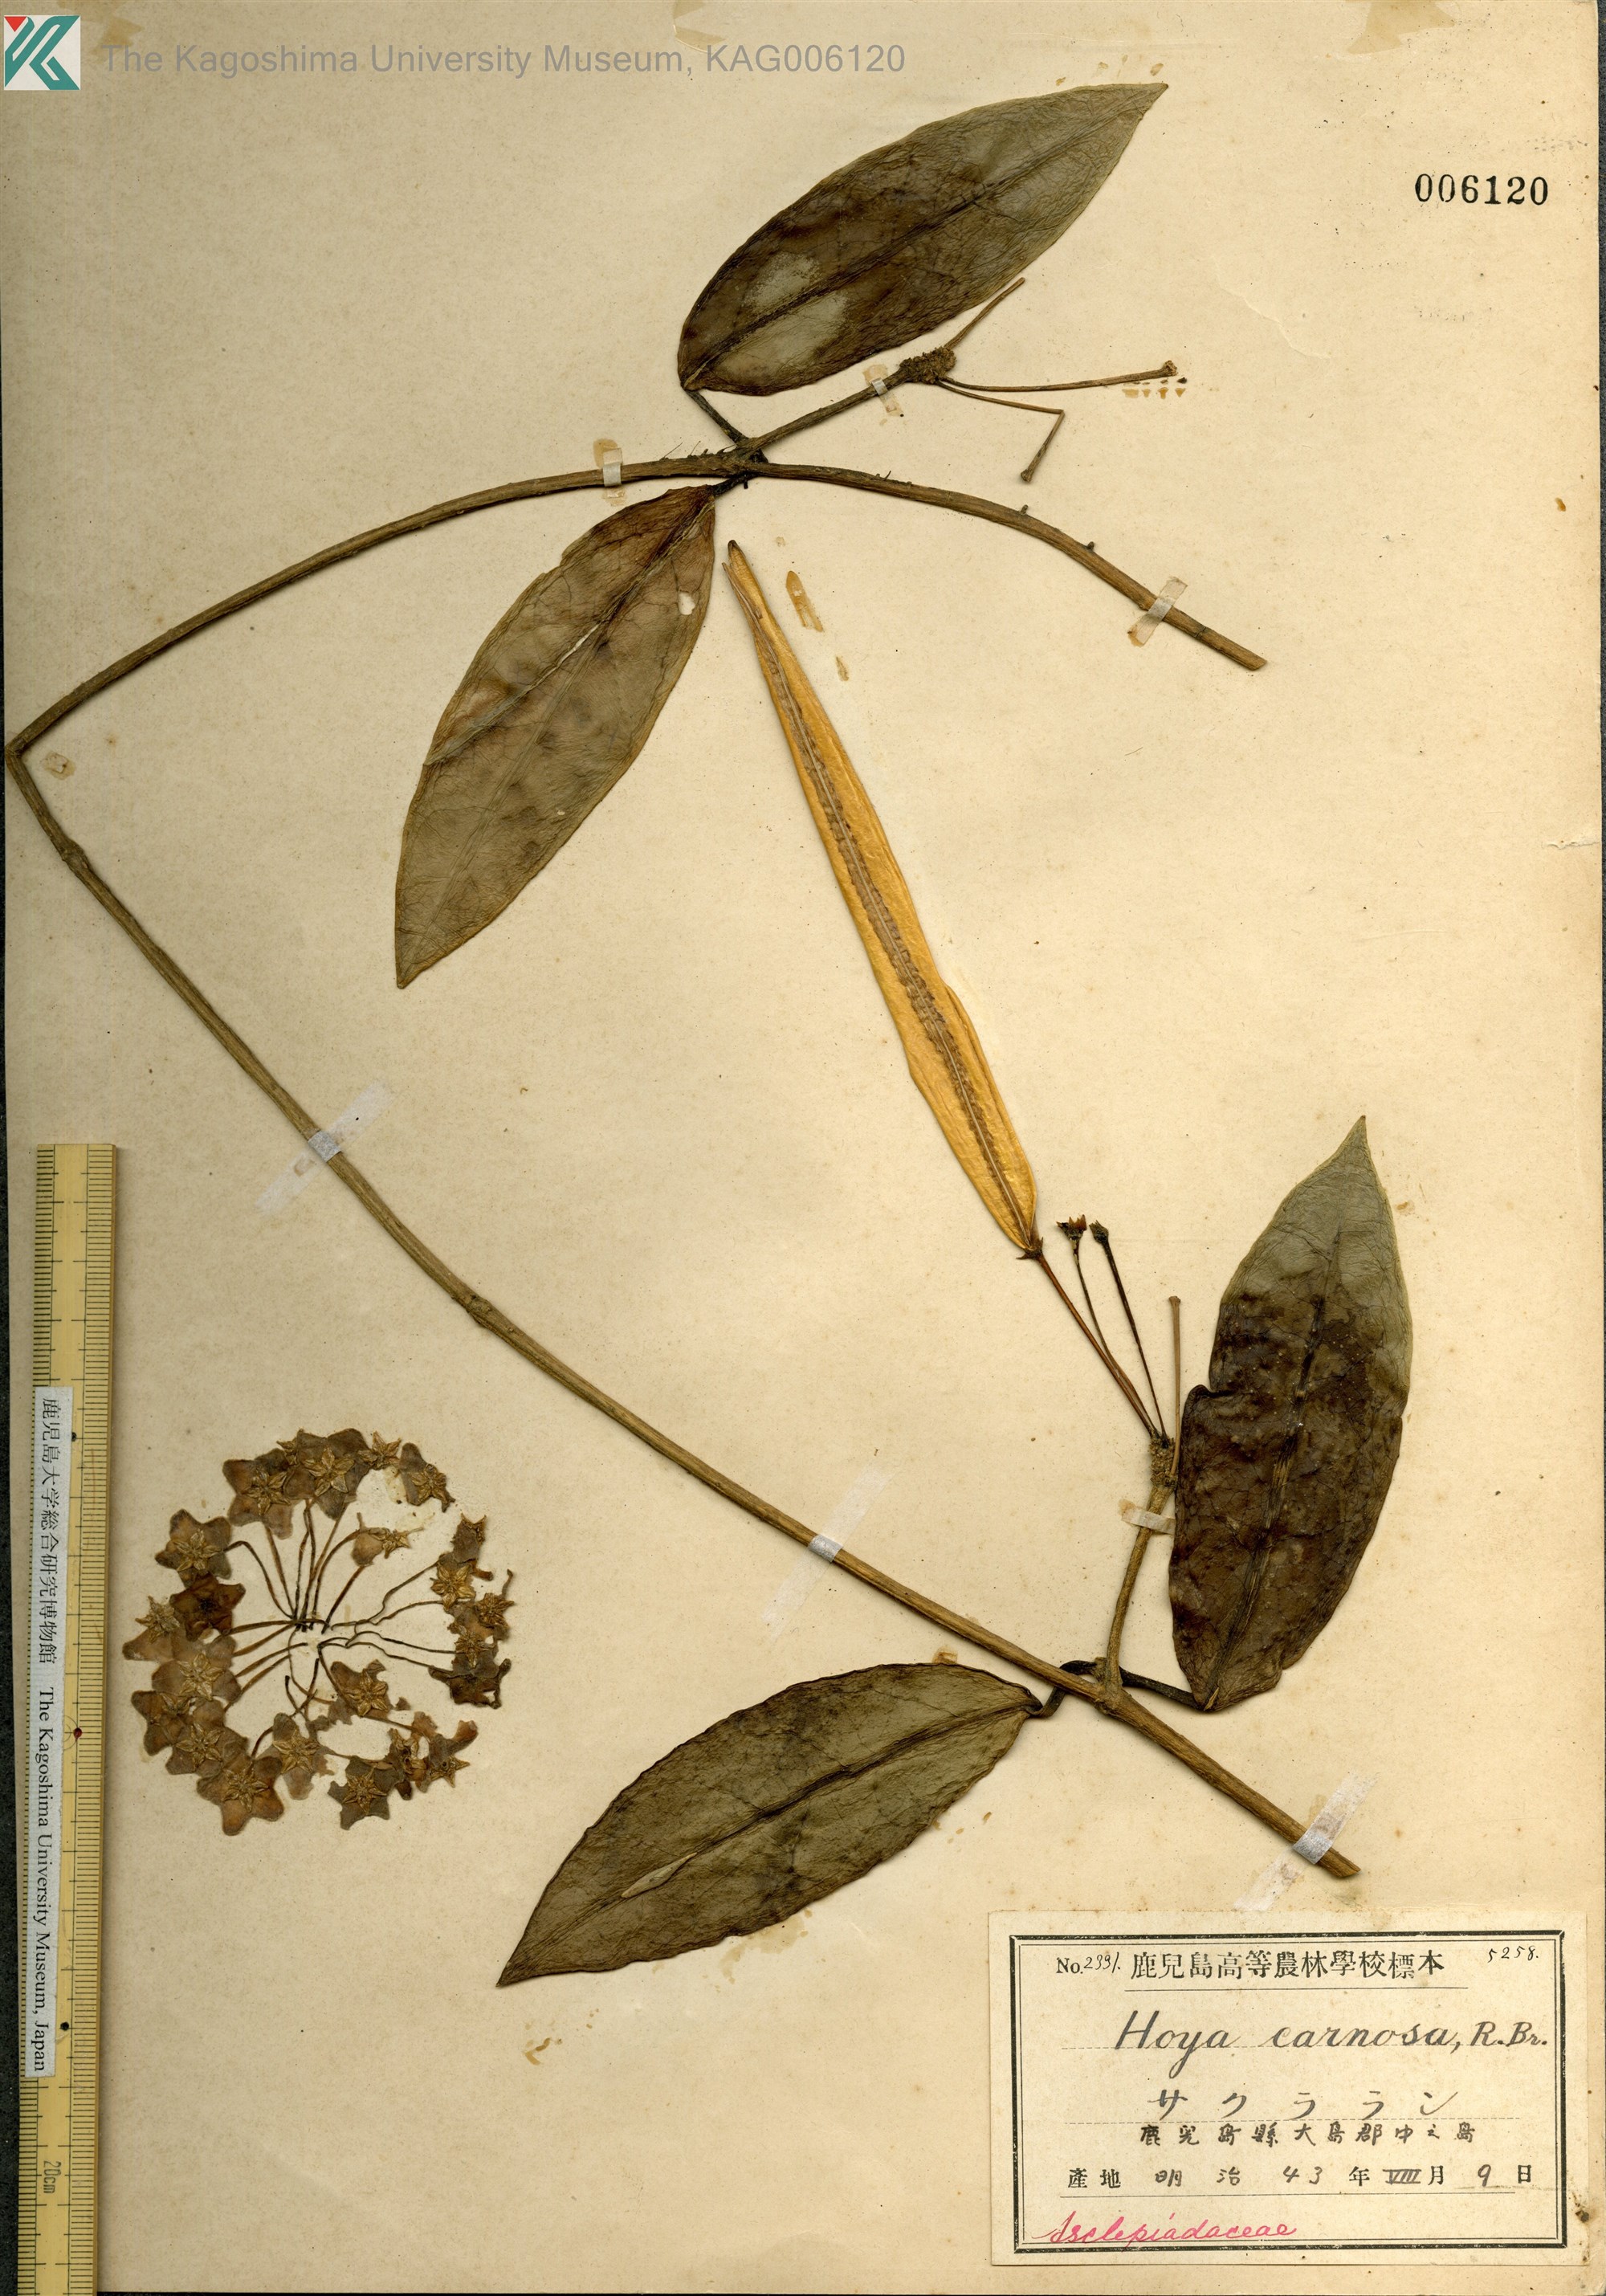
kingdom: Plantae
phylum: Tracheophyta
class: Magnoliopsida
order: Gentianales
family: Apocynaceae
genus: Hoya
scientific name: Hoya carnosa
